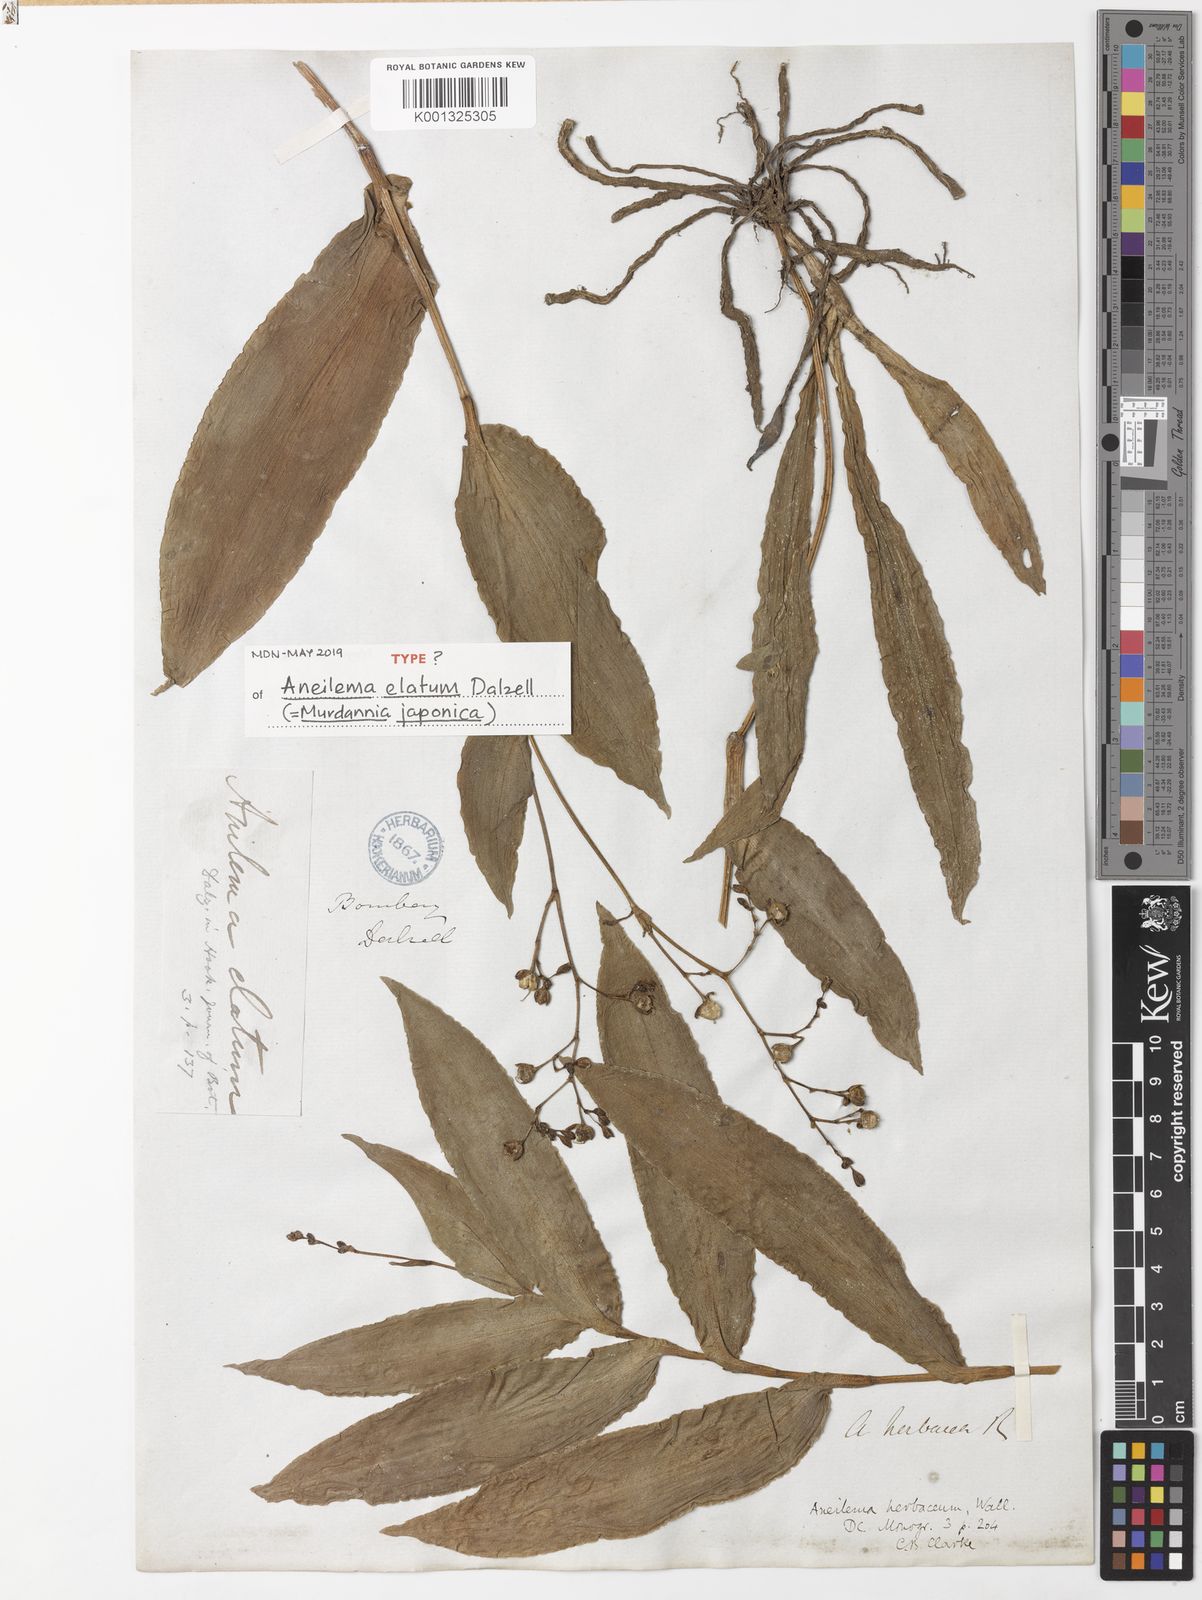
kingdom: Plantae
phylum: Tracheophyta
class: Liliopsida
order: Commelinales
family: Commelinaceae
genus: Murdannia
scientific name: Murdannia japonica
